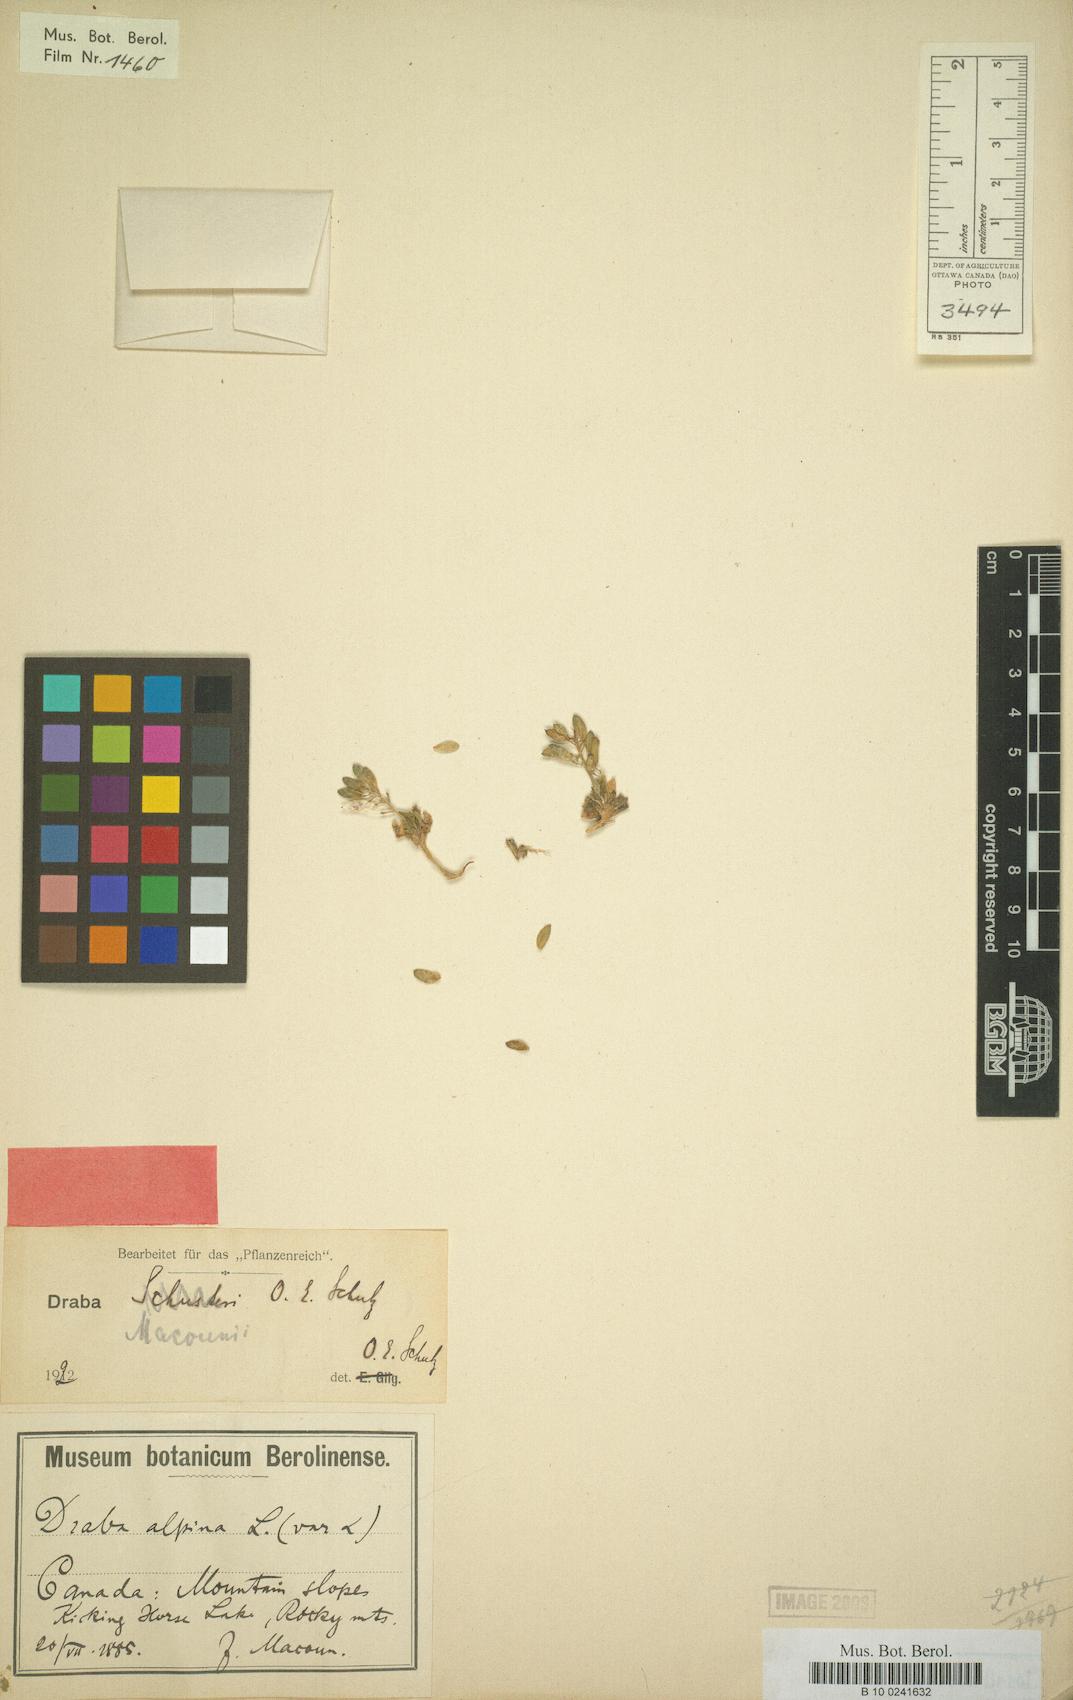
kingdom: Plantae
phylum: Tracheophyta
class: Magnoliopsida
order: Brassicales
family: Brassicaceae
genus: Draba
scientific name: Draba macounii
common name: Macoun's draba
